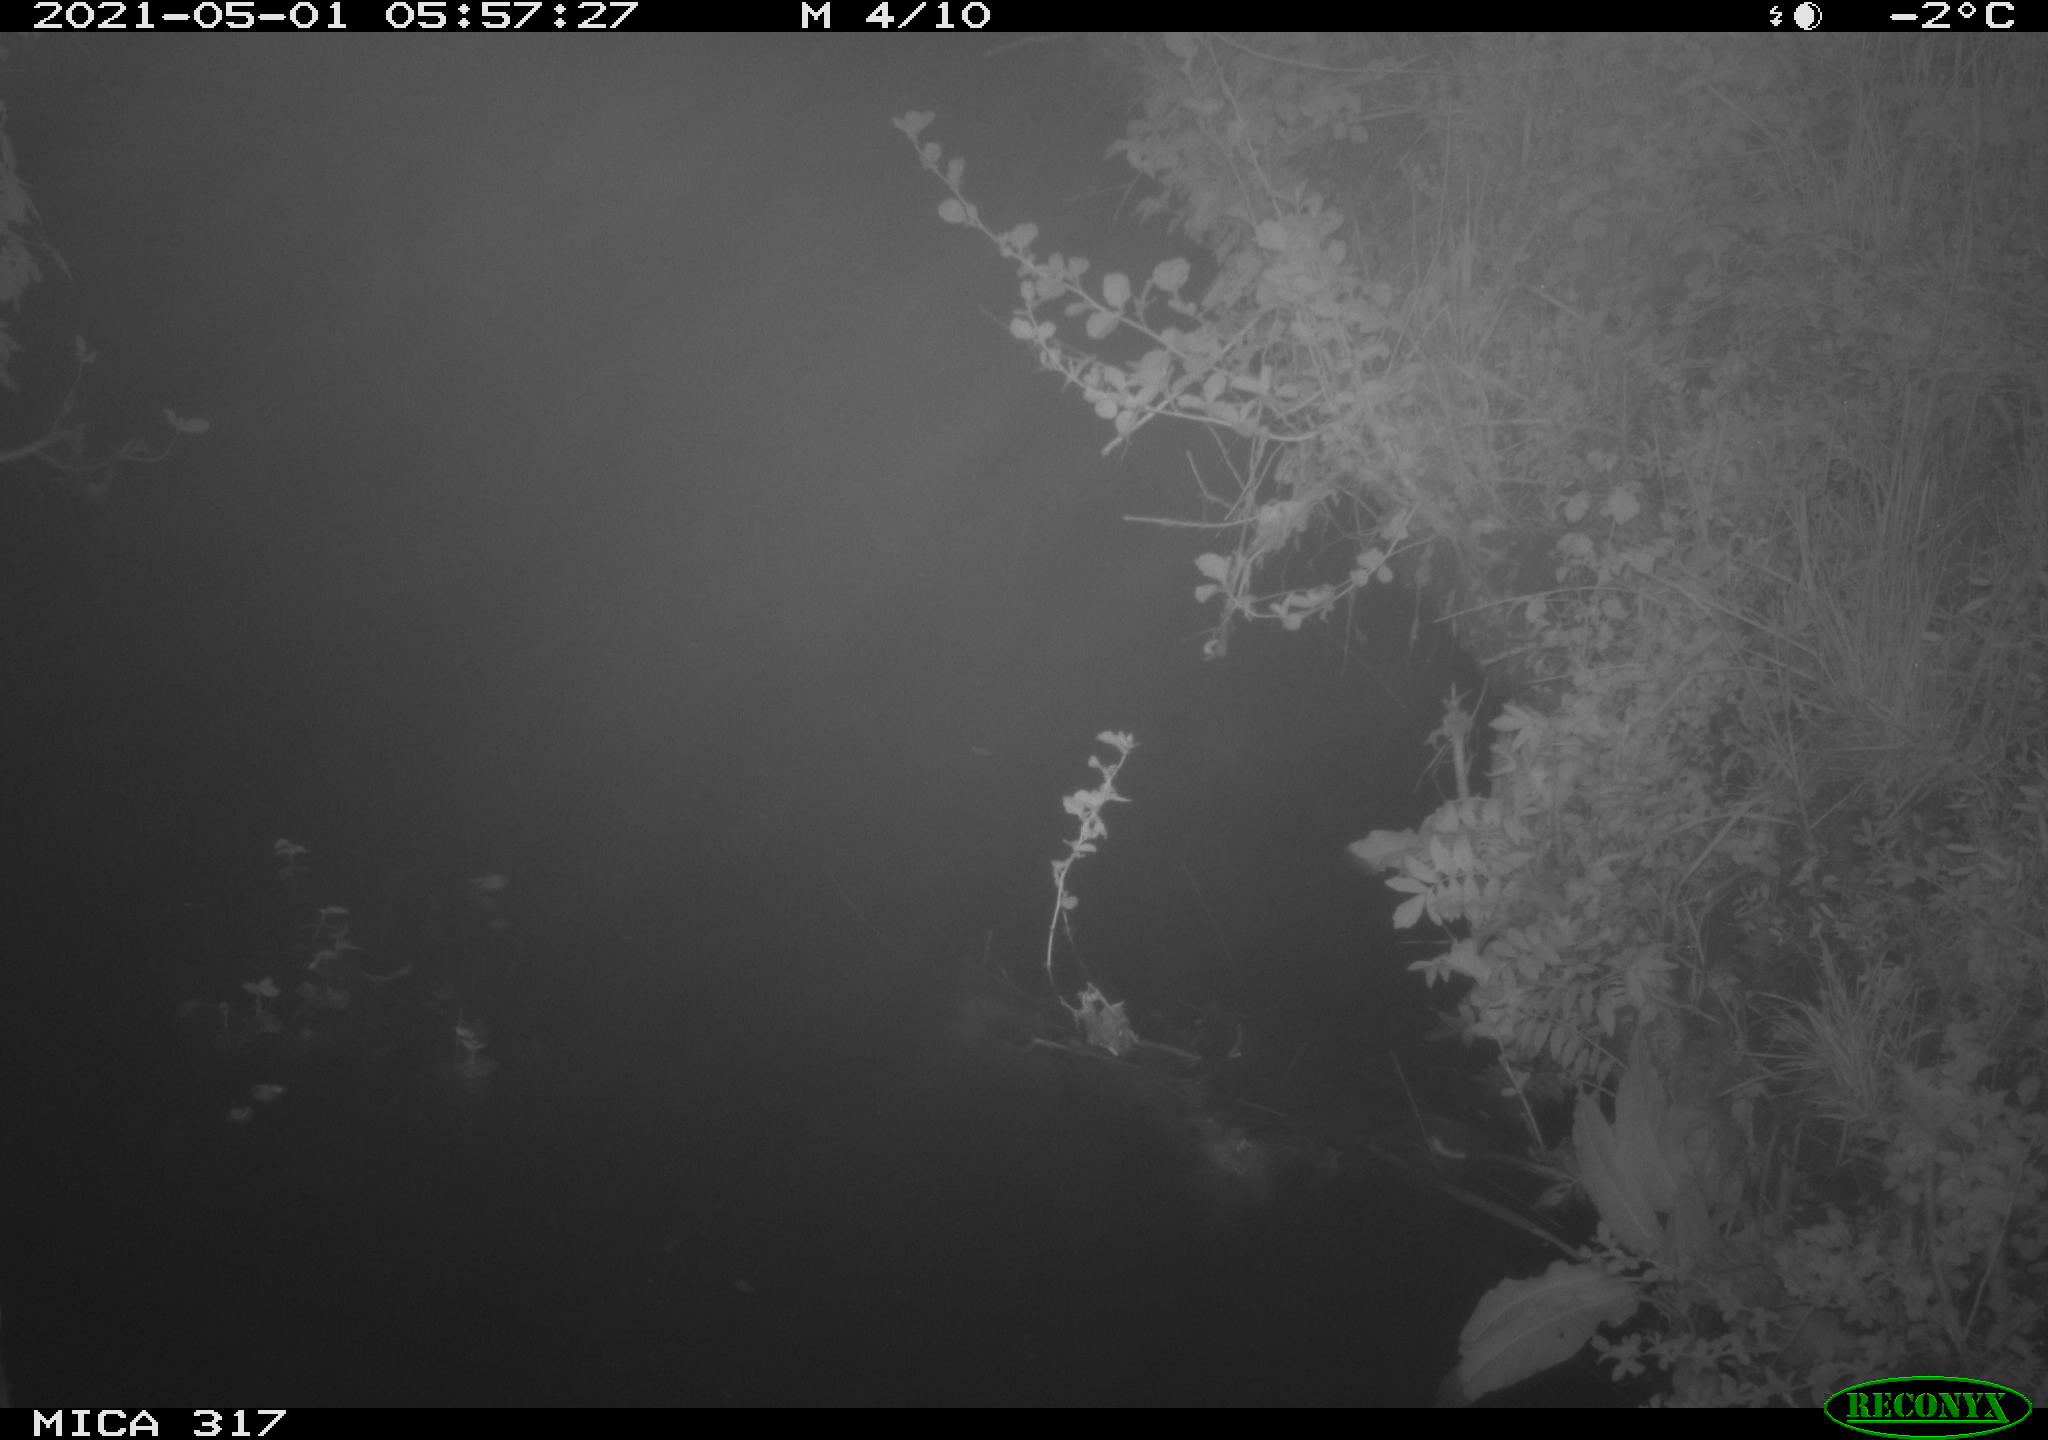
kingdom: Animalia
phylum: Chordata
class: Aves
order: Anseriformes
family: Anatidae
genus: Anas
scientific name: Anas
